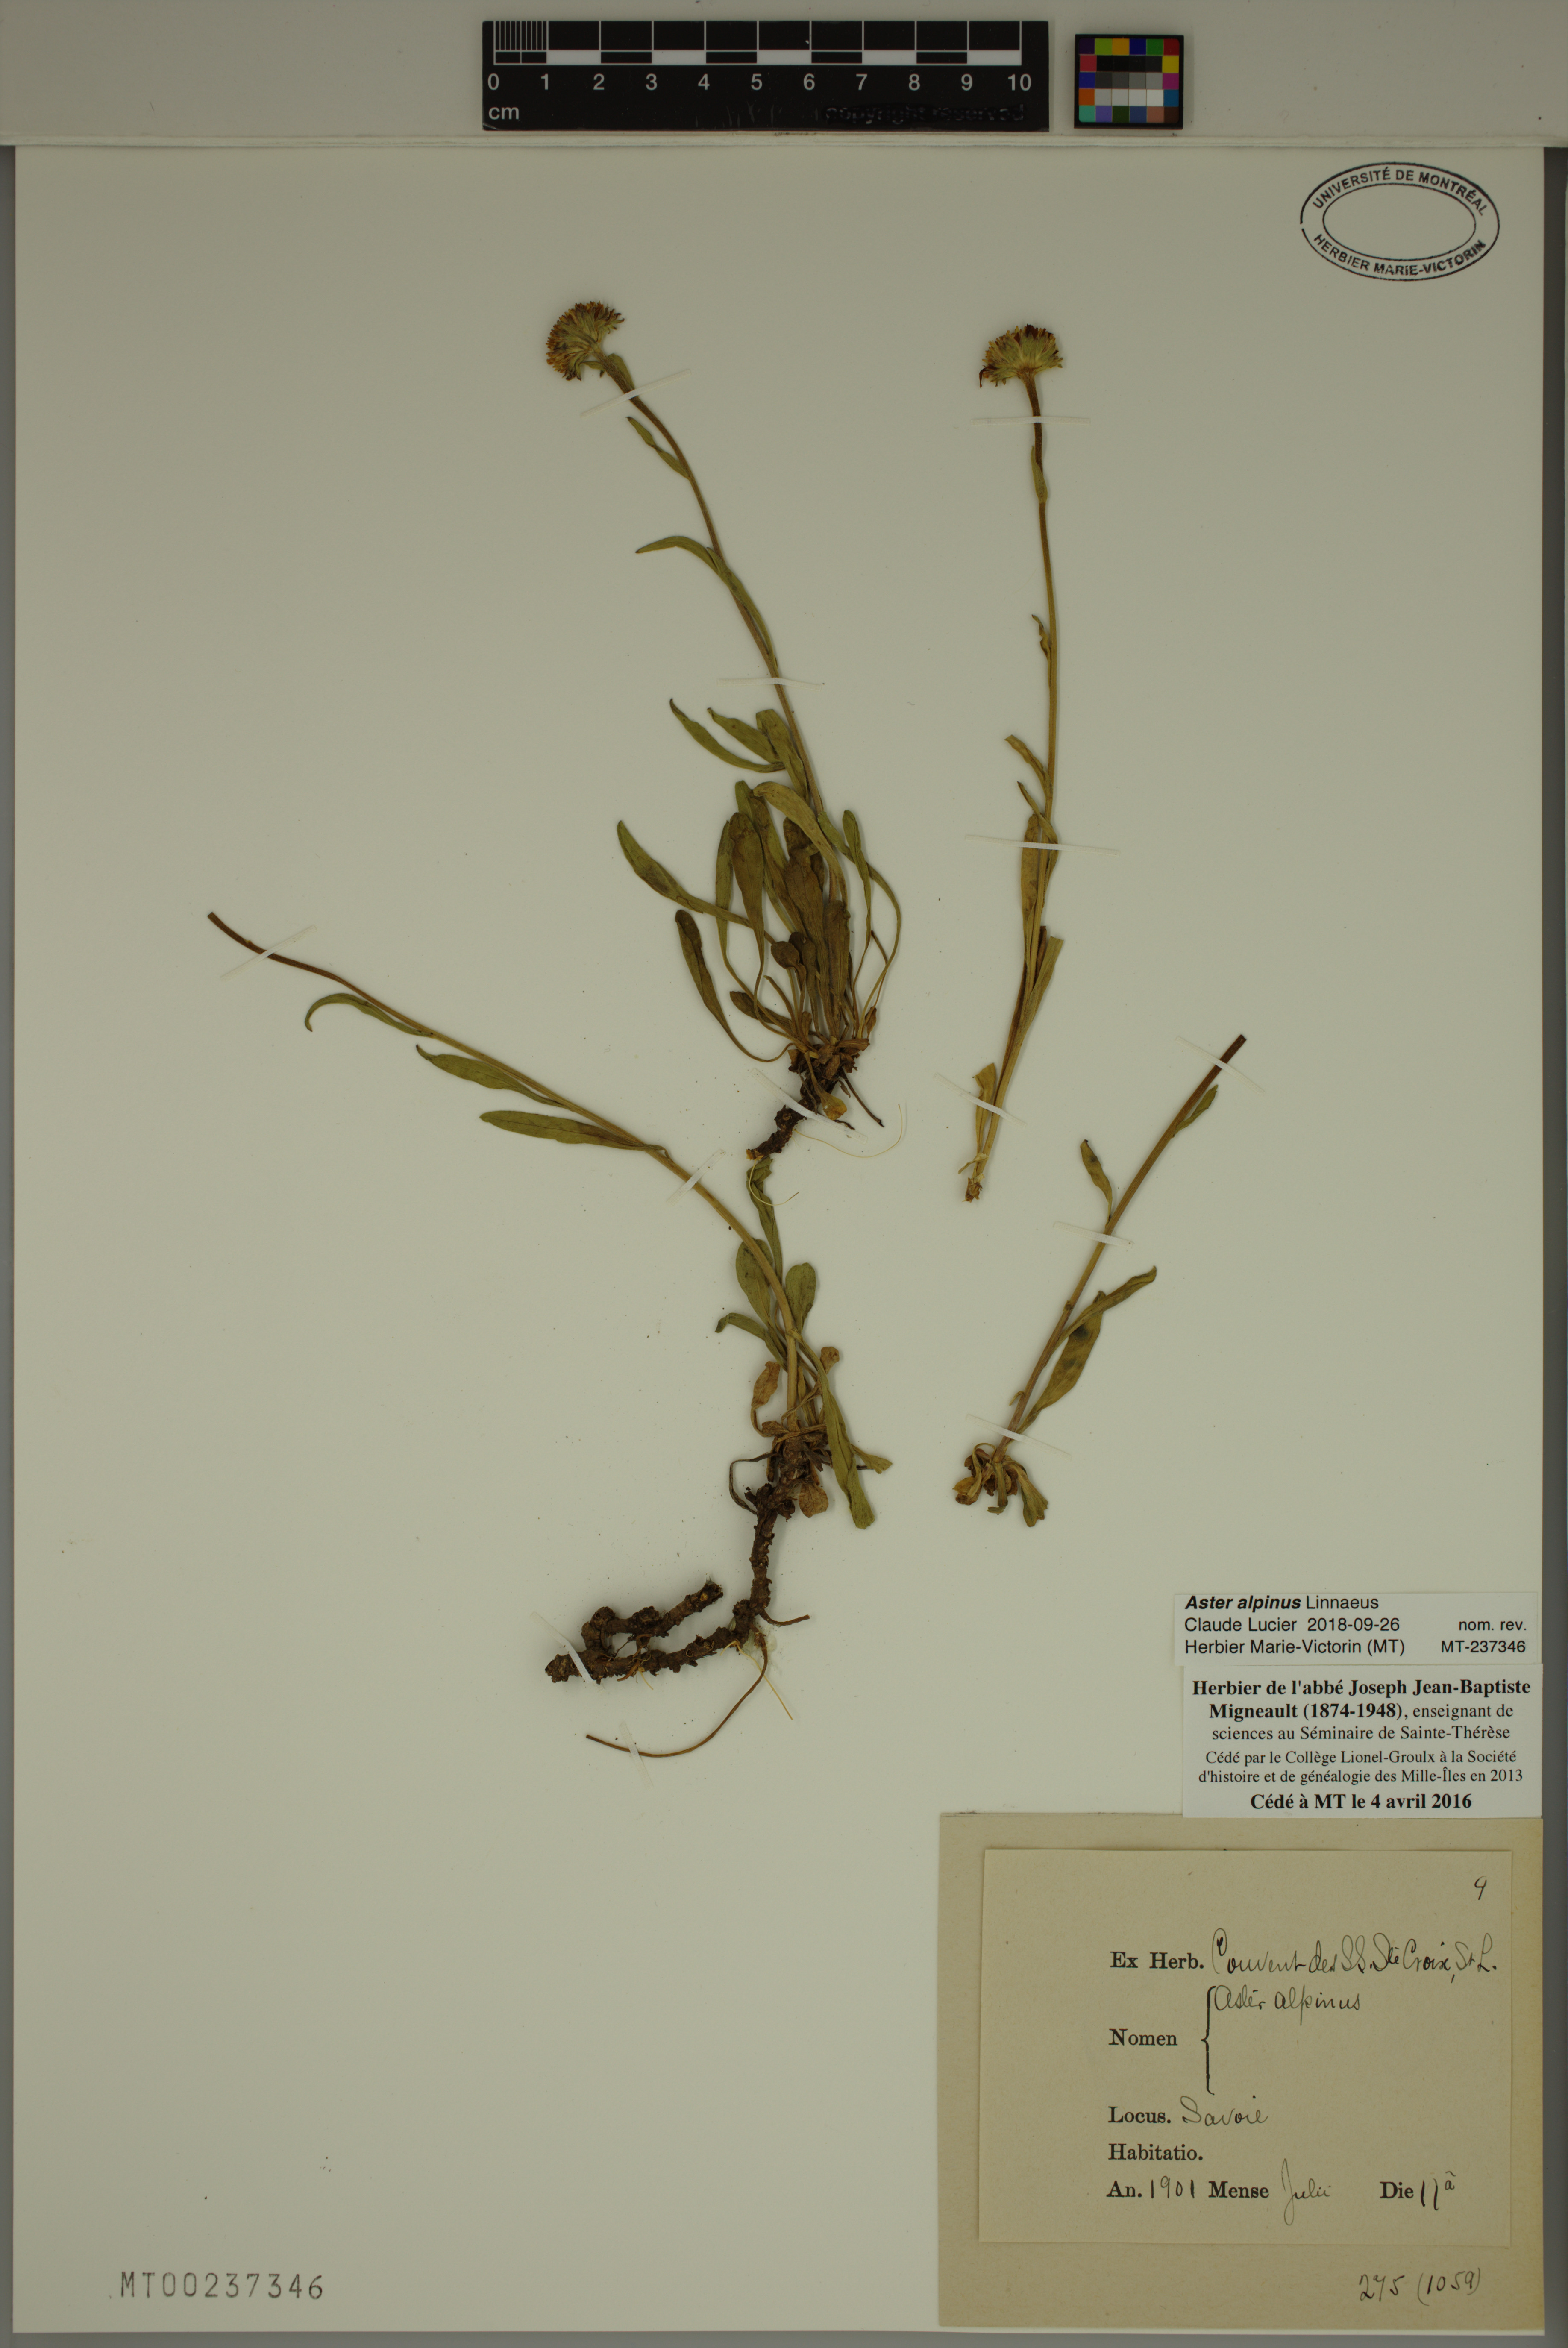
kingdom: Plantae
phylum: Tracheophyta
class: Magnoliopsida
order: Asterales
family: Asteraceae
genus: Aster
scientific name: Aster alpinus
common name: Alpine aster
